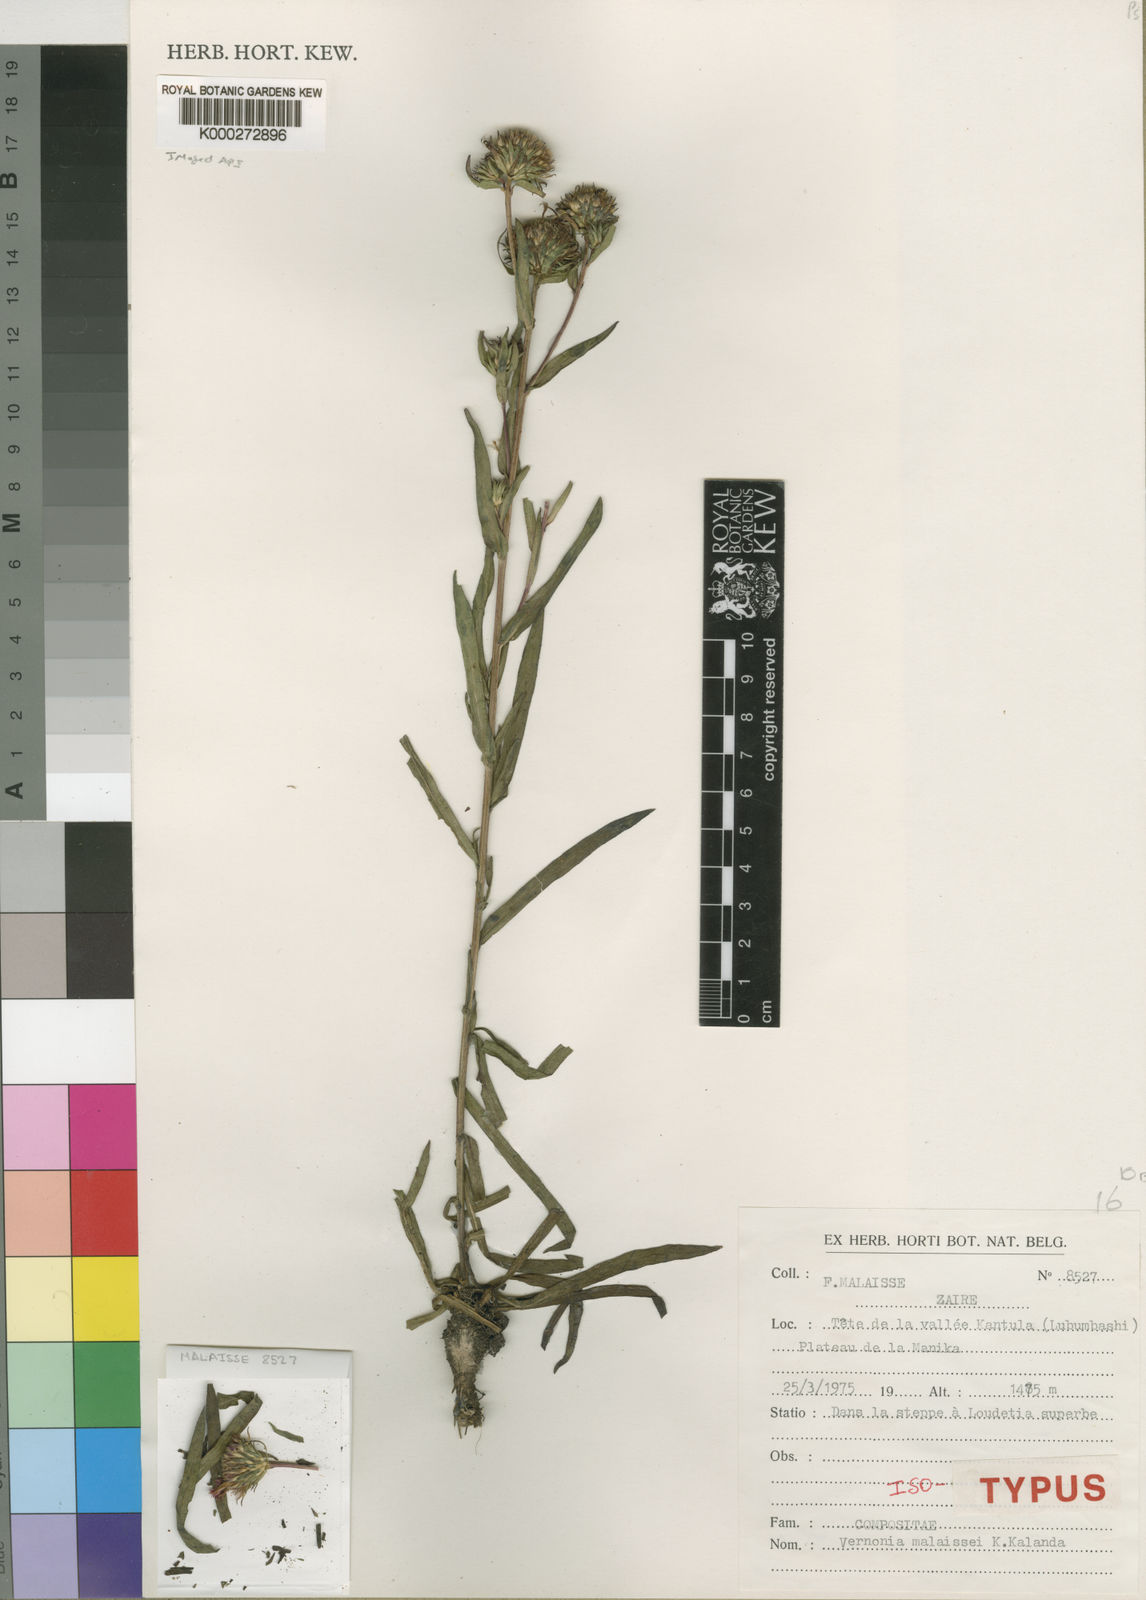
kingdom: Plantae
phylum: Tracheophyta
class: Magnoliopsida
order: Asterales
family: Asteraceae
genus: Vernonia
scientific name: Vernonia robinsonii
